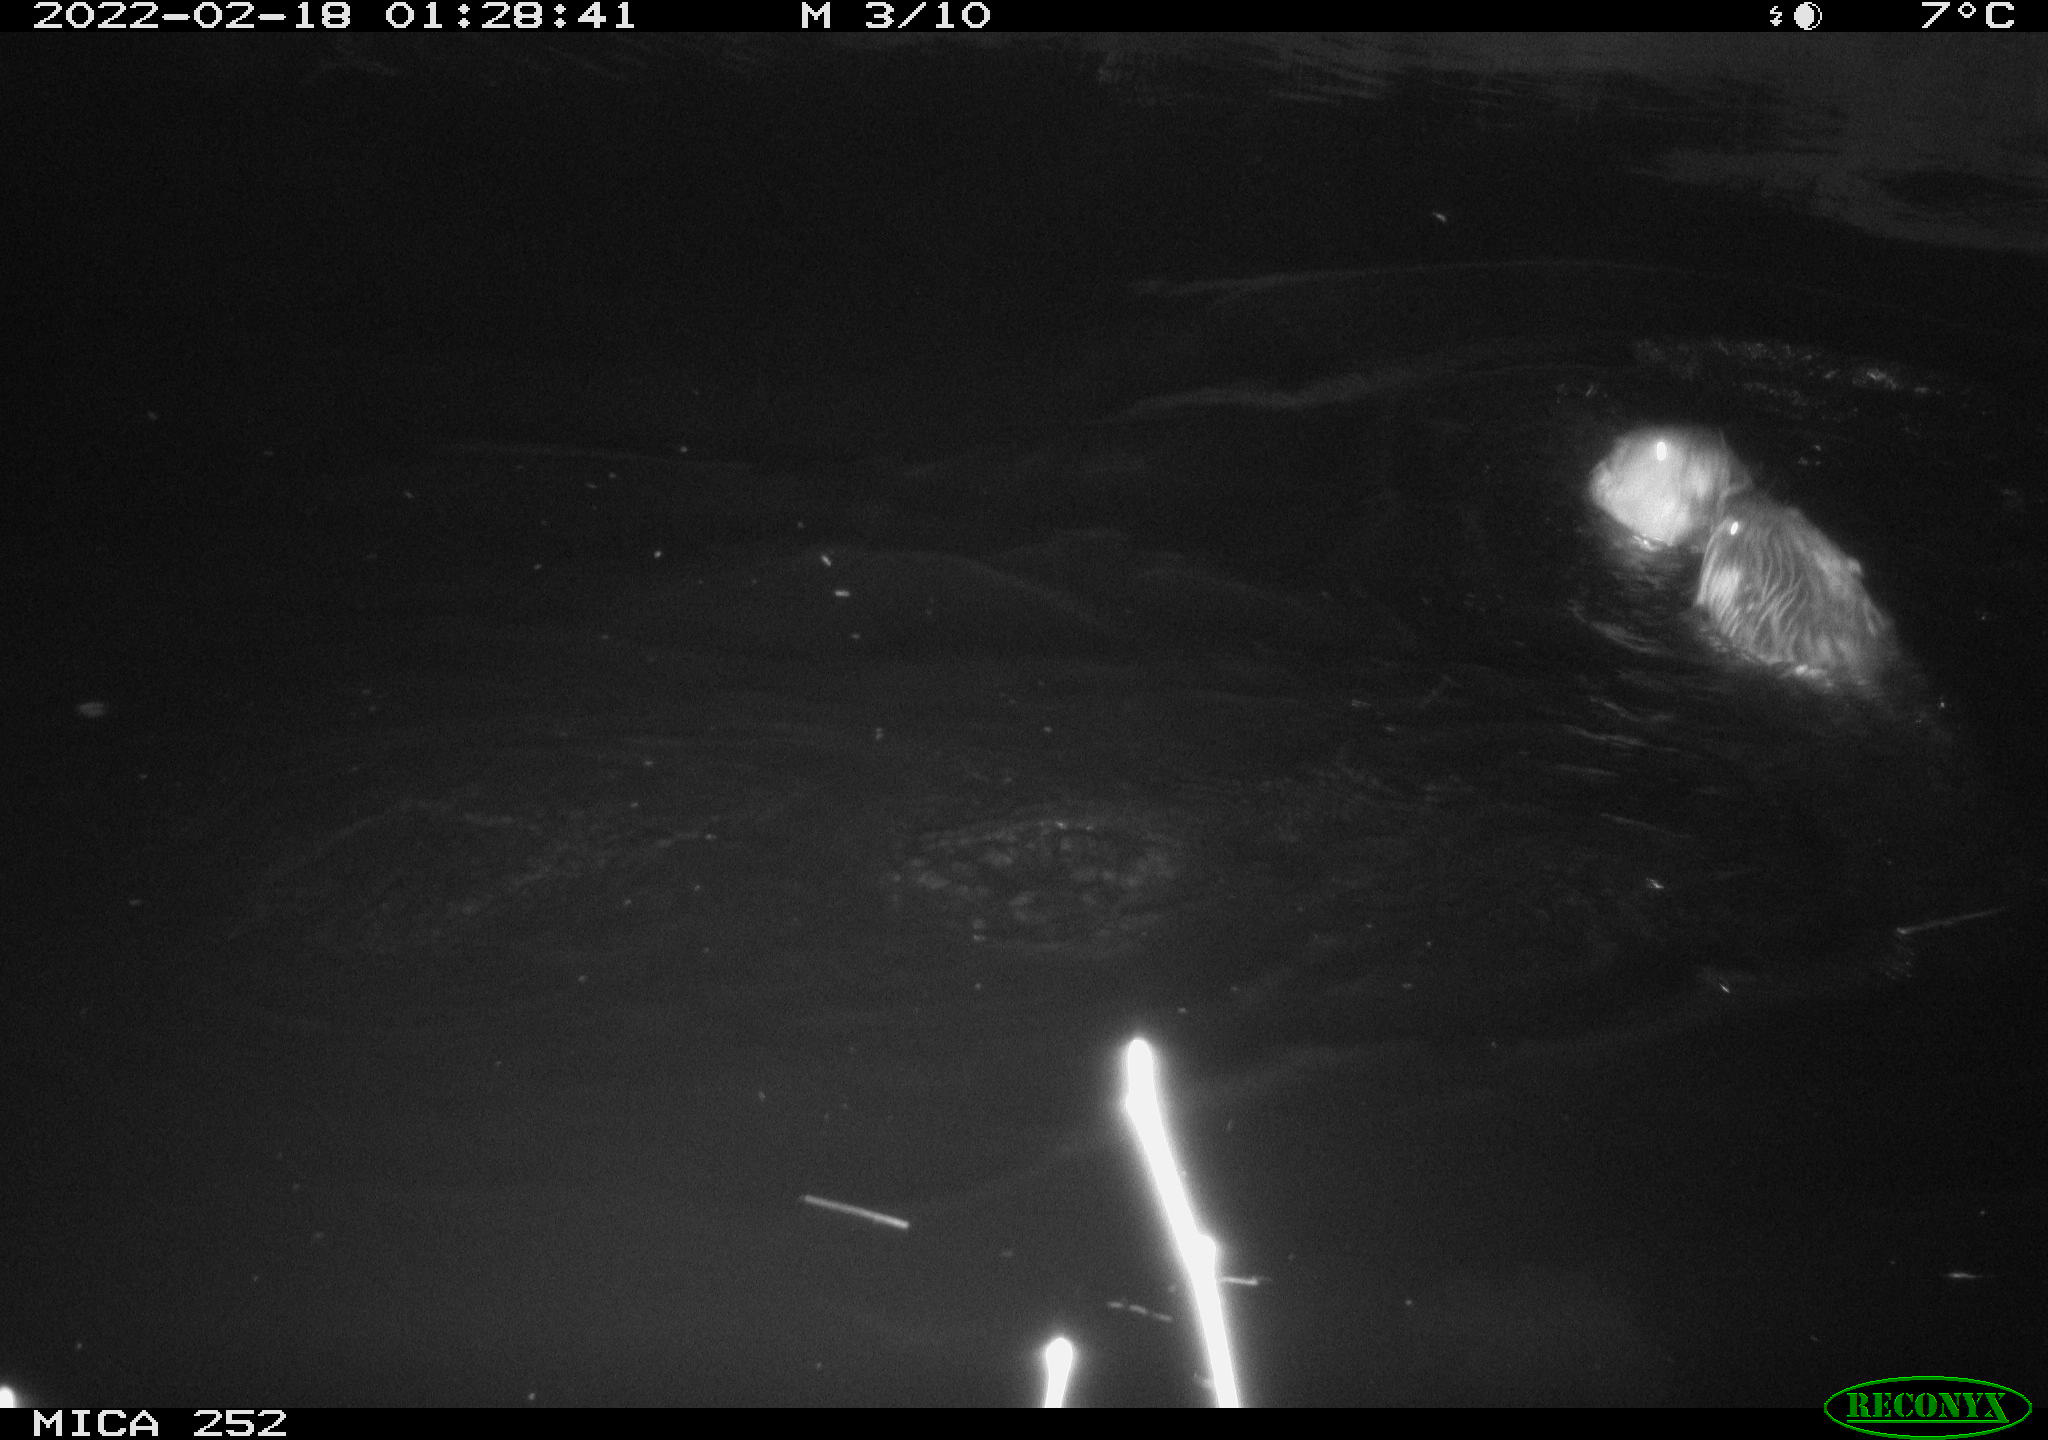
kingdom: Animalia
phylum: Chordata
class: Mammalia
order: Rodentia
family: Castoridae
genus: Castor
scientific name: Castor fiber
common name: Eurasian beaver
